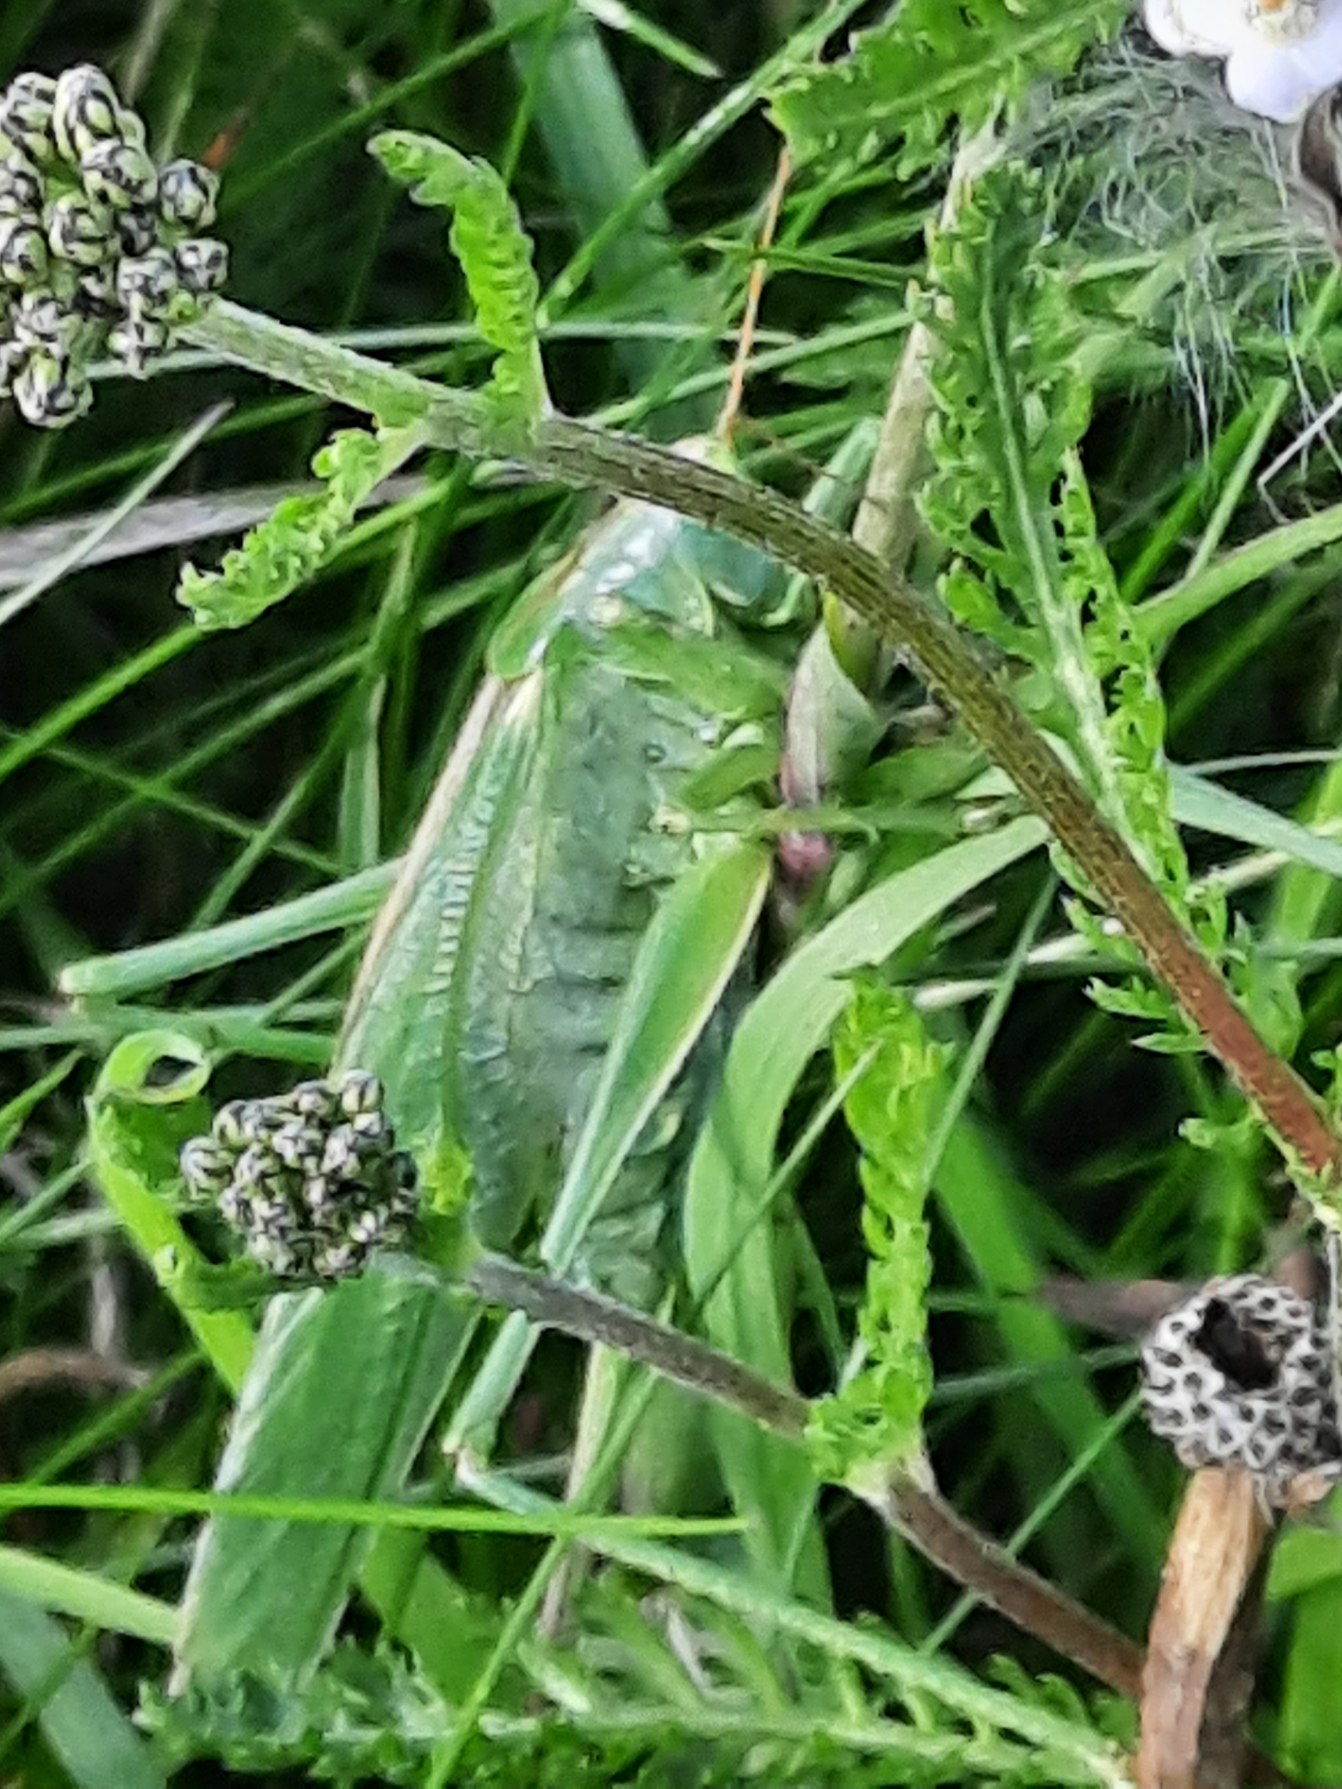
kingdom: Animalia
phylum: Arthropoda
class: Insecta
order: Orthoptera
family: Tettigoniidae
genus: Tettigonia
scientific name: Tettigonia viridissima
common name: Stor grøn løvgræshoppe
